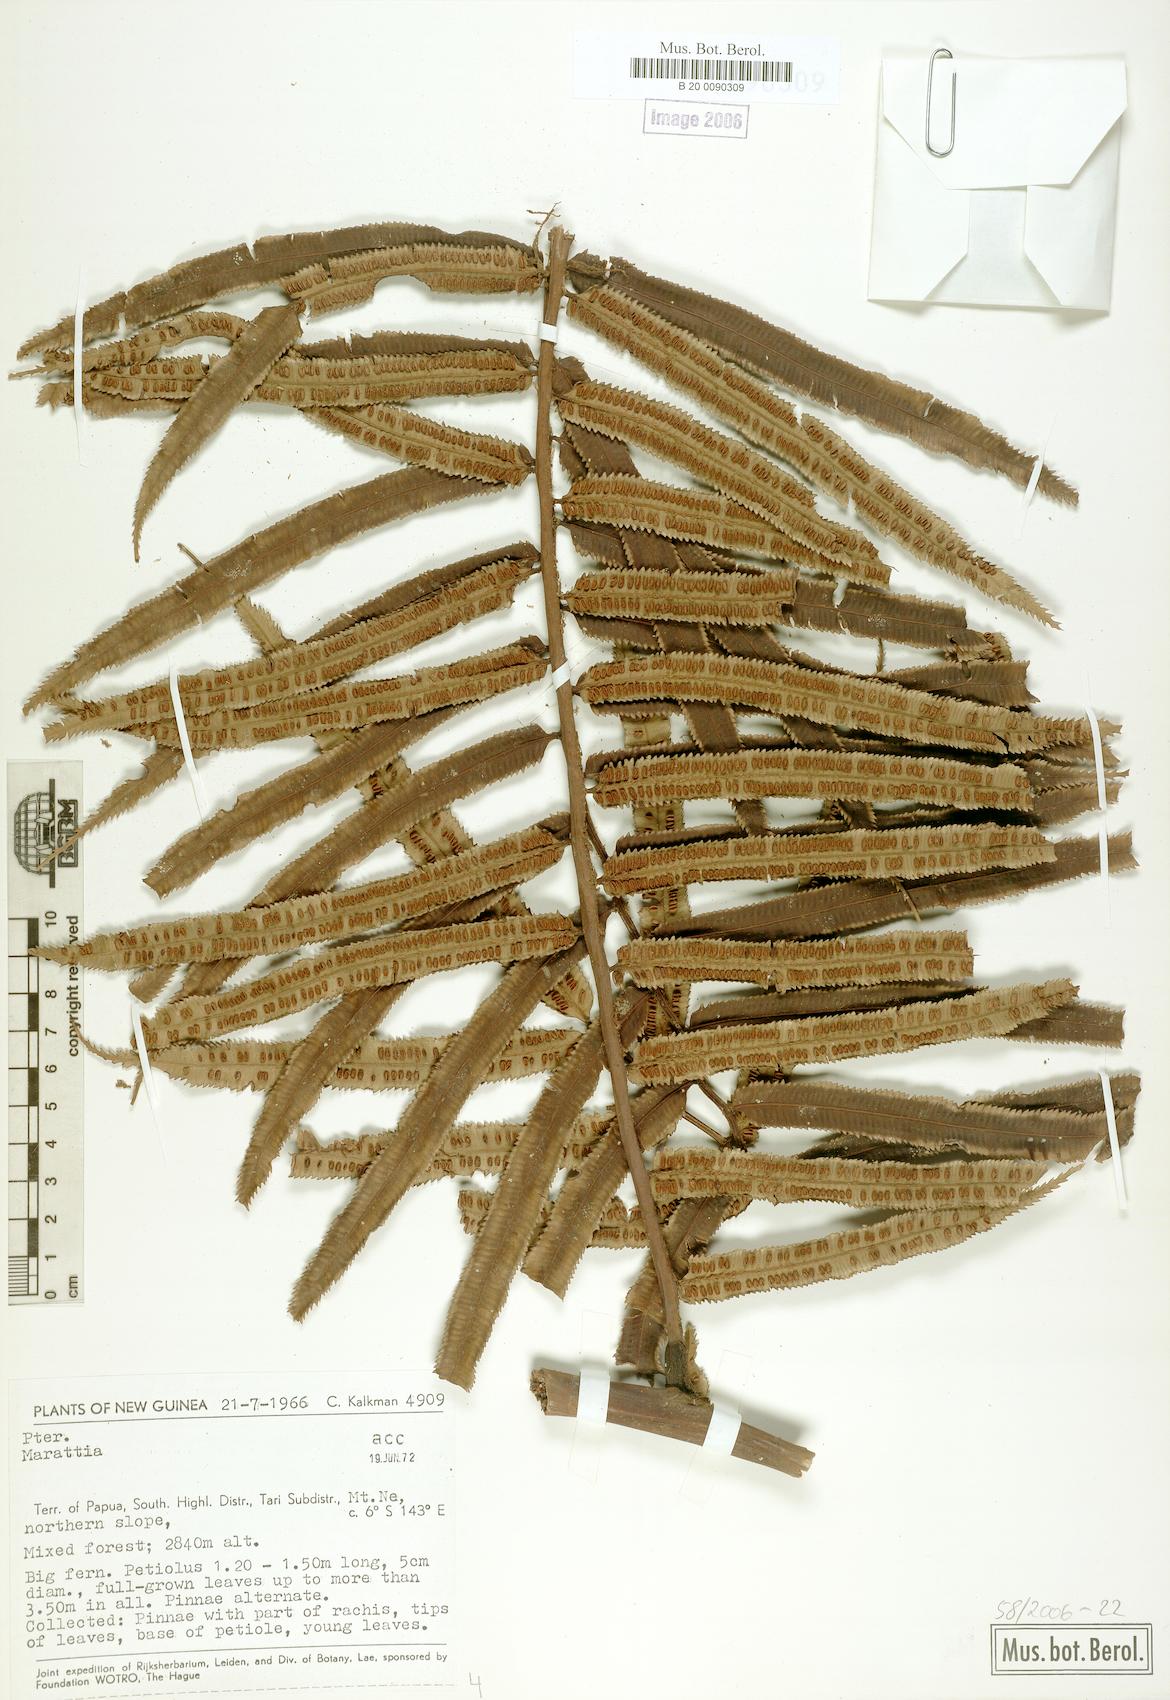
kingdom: Plantae
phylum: Tracheophyta
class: Polypodiopsida
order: Marattiales
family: Marattiaceae
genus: Marattia
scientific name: Marattia
